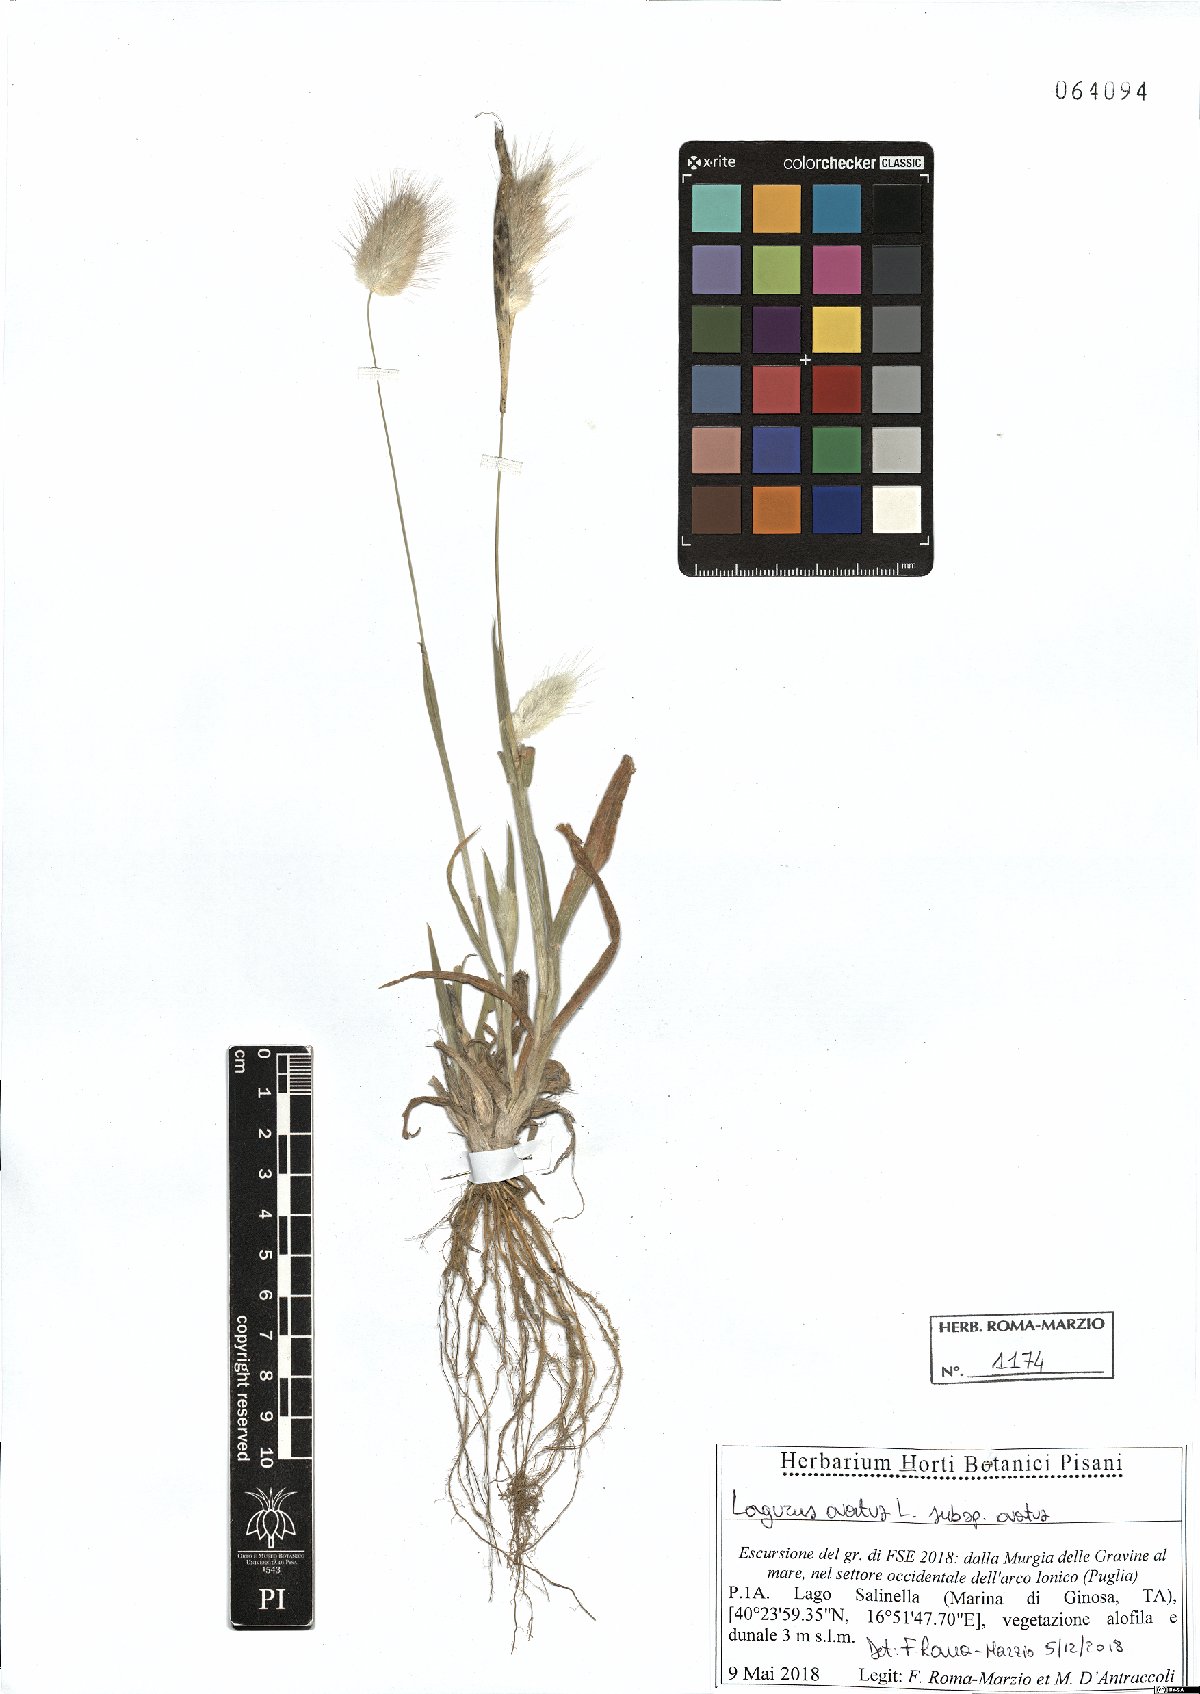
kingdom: Plantae
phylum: Tracheophyta
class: Liliopsida
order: Poales
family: Poaceae
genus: Lagurus
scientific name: Lagurus ovatus
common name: Hare's-tail
